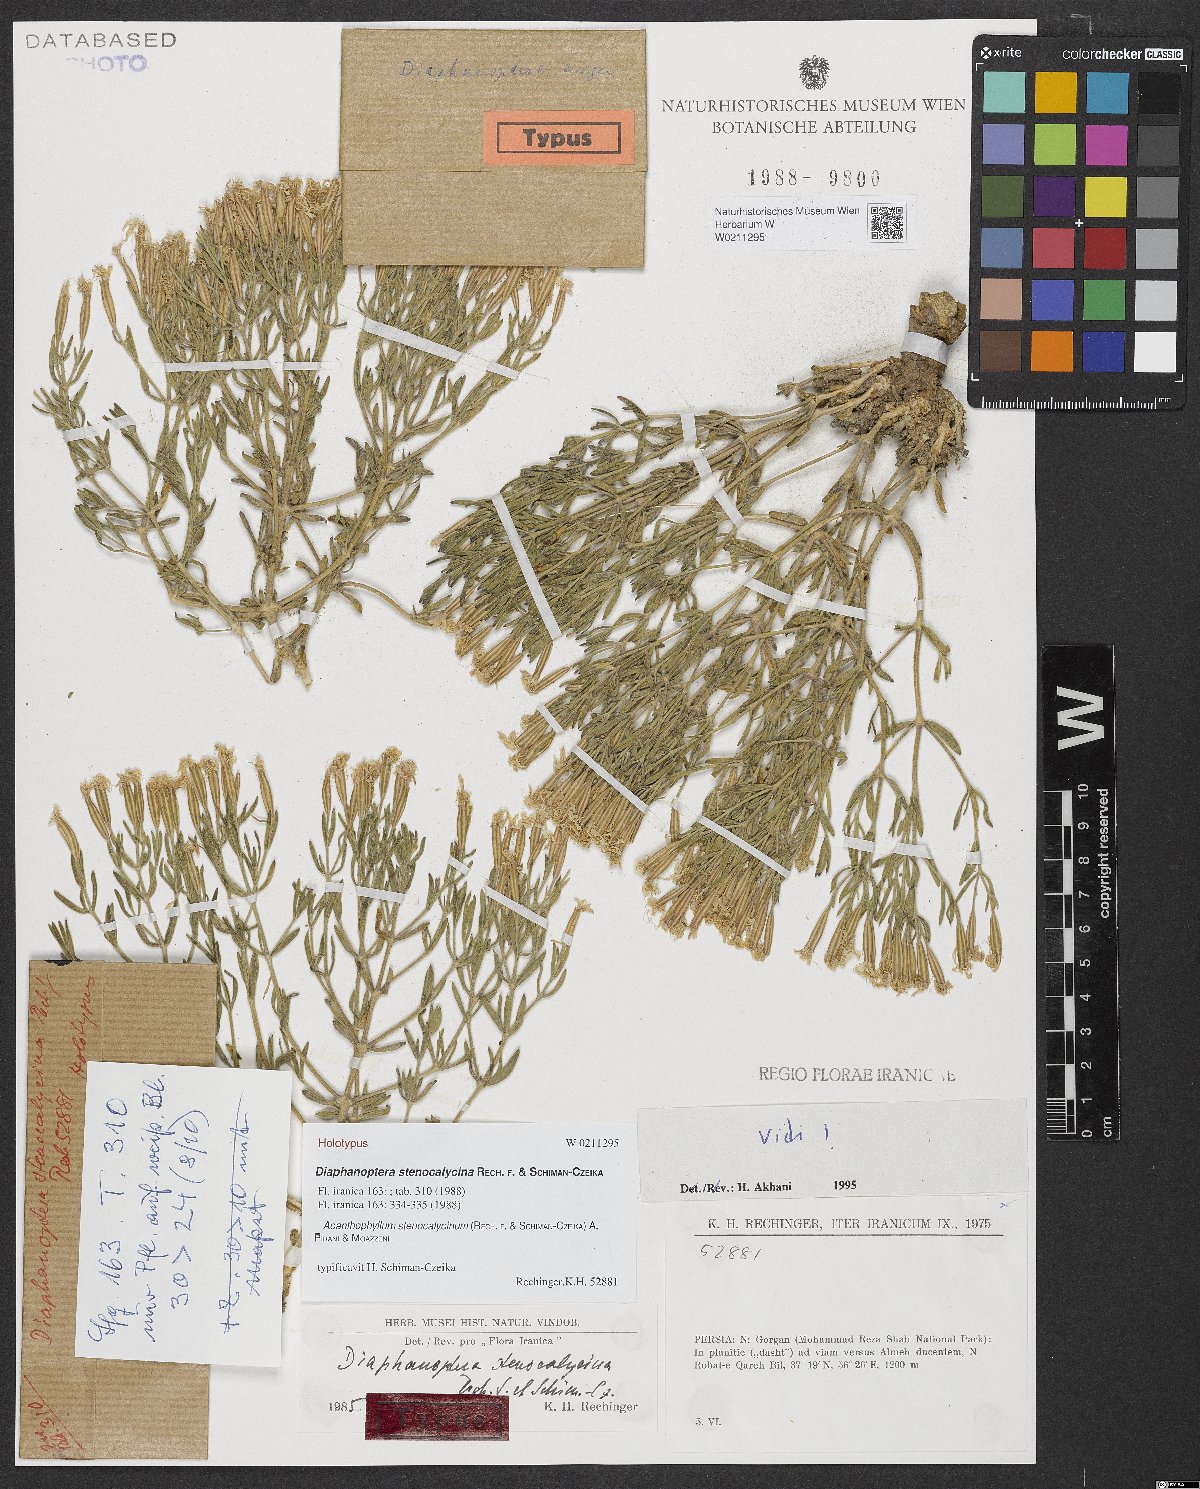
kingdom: Plantae
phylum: Tracheophyta
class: Magnoliopsida
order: Caryophyllales
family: Caryophyllaceae
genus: Acanthophyllum
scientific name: Acanthophyllum stenocalycinum
